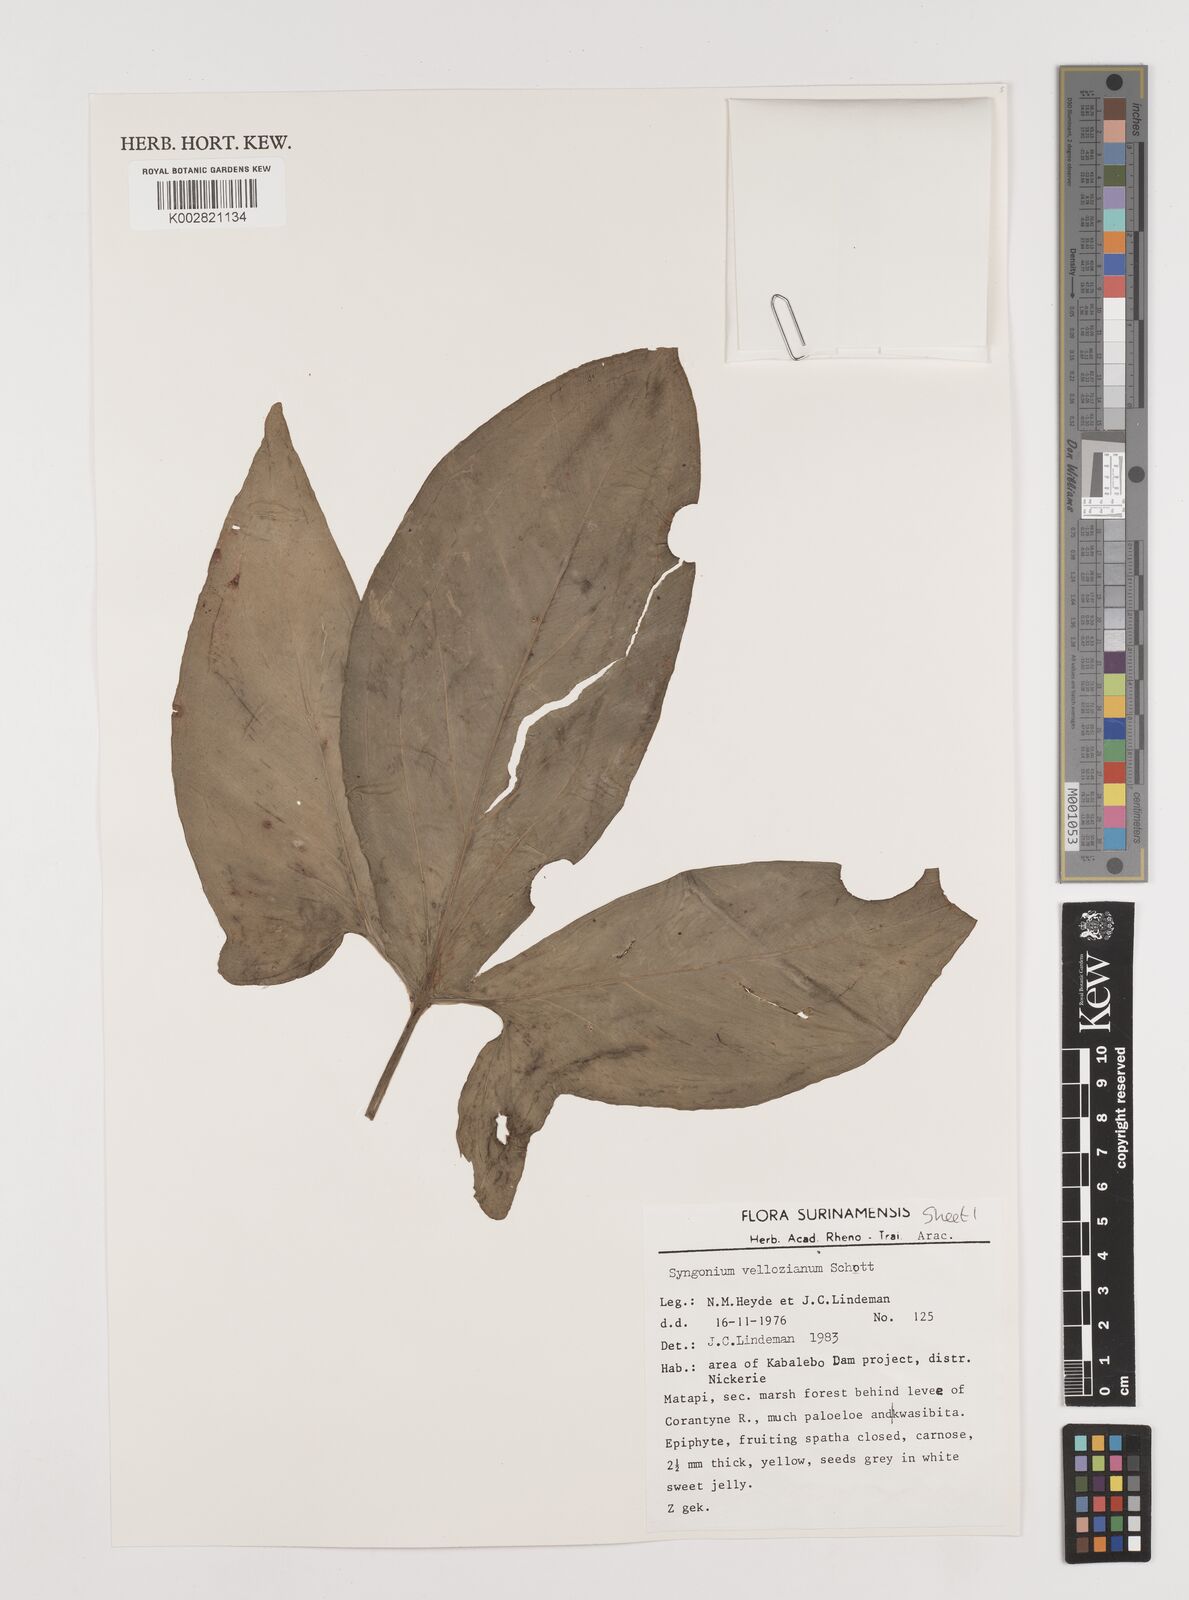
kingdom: Plantae
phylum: Tracheophyta
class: Liliopsida
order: Alismatales
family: Araceae
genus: Syngonium
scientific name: Syngonium podophyllum
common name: American evergreen
